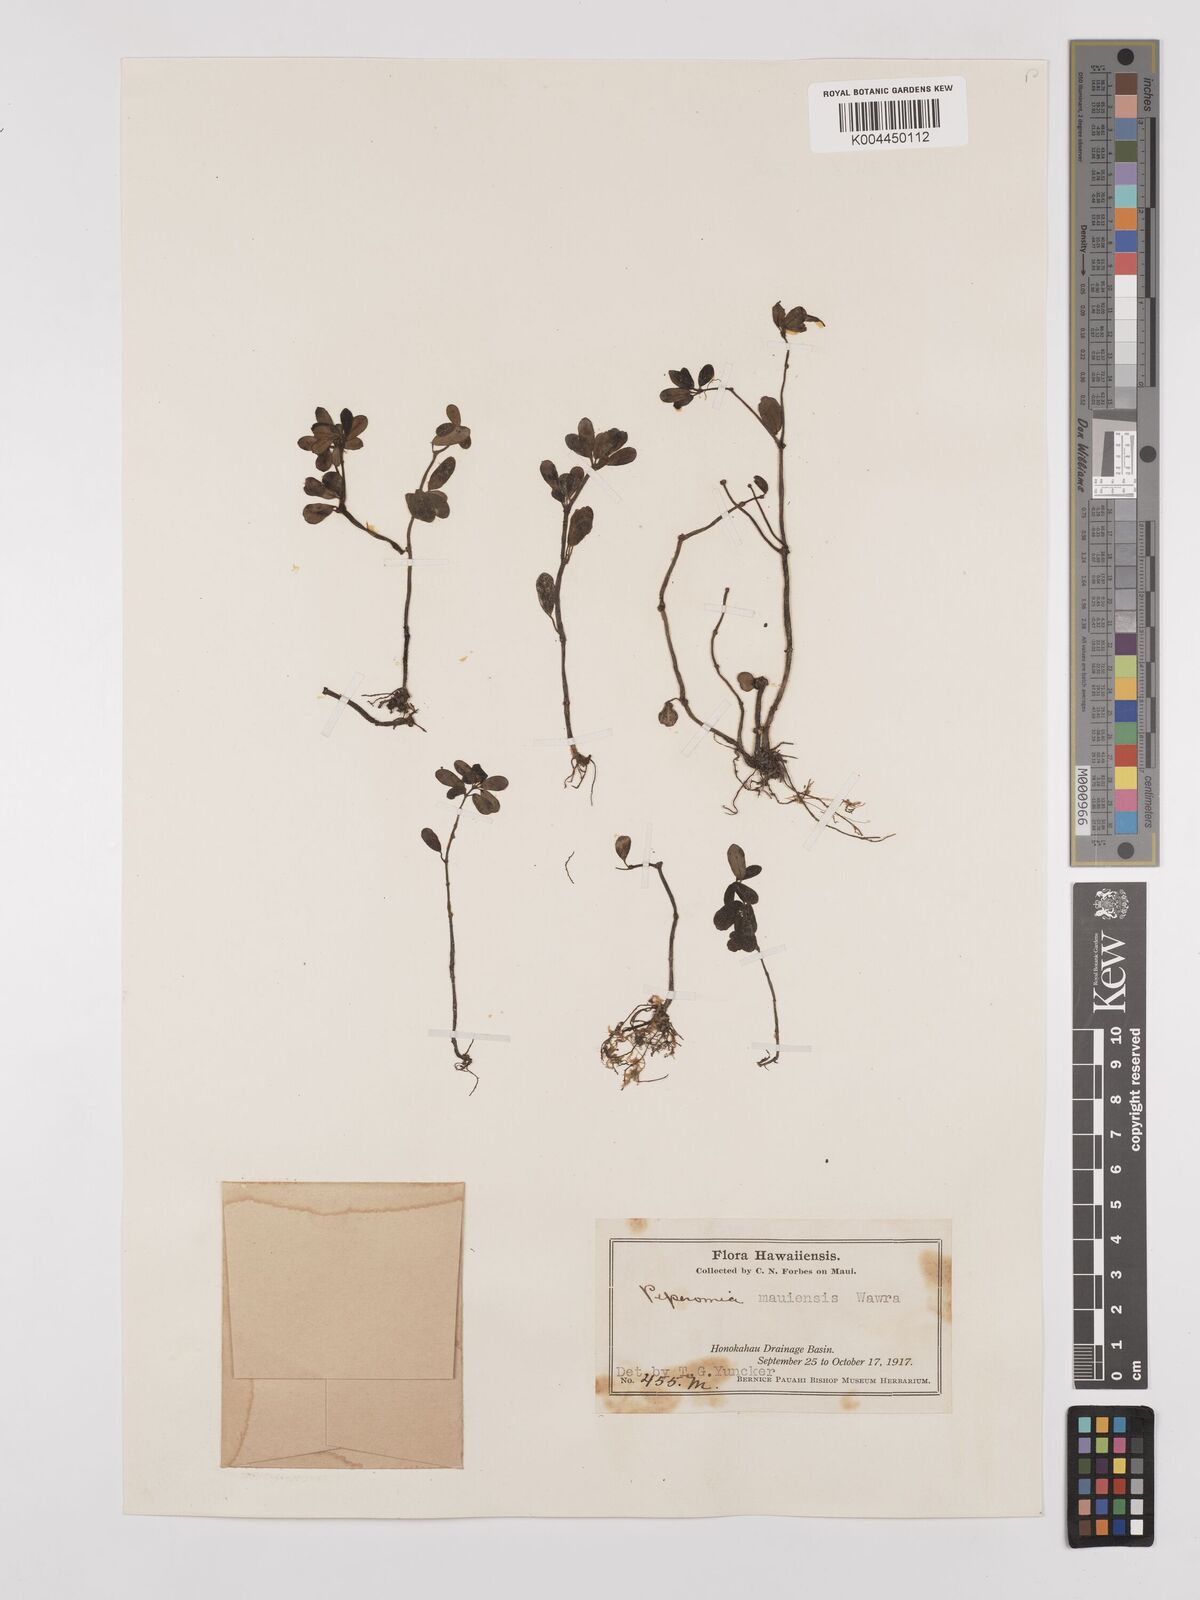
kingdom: Plantae
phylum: Tracheophyta
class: Magnoliopsida
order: Piperales
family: Piperaceae
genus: Peperomia
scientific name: Peperomia mauiensis
